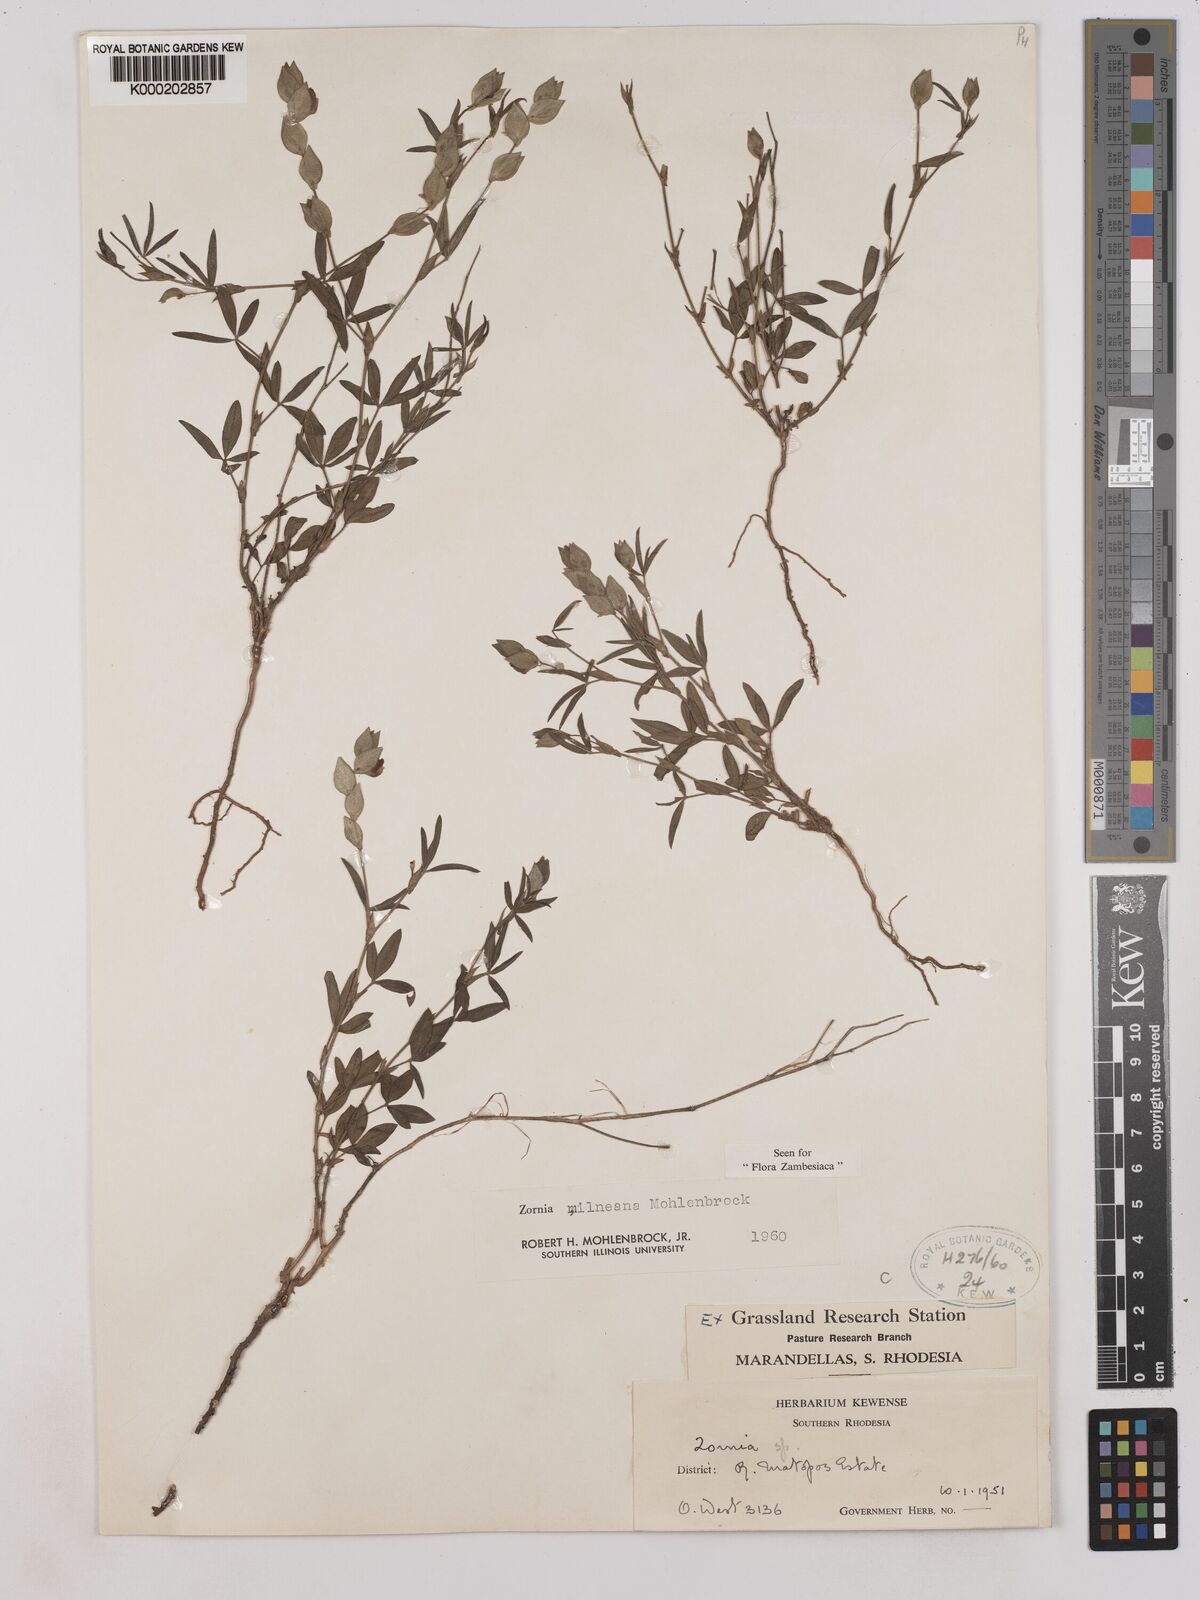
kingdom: Plantae
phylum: Tracheophyta
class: Magnoliopsida
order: Fabales
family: Fabaceae
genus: Zornia
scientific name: Zornia milneana
